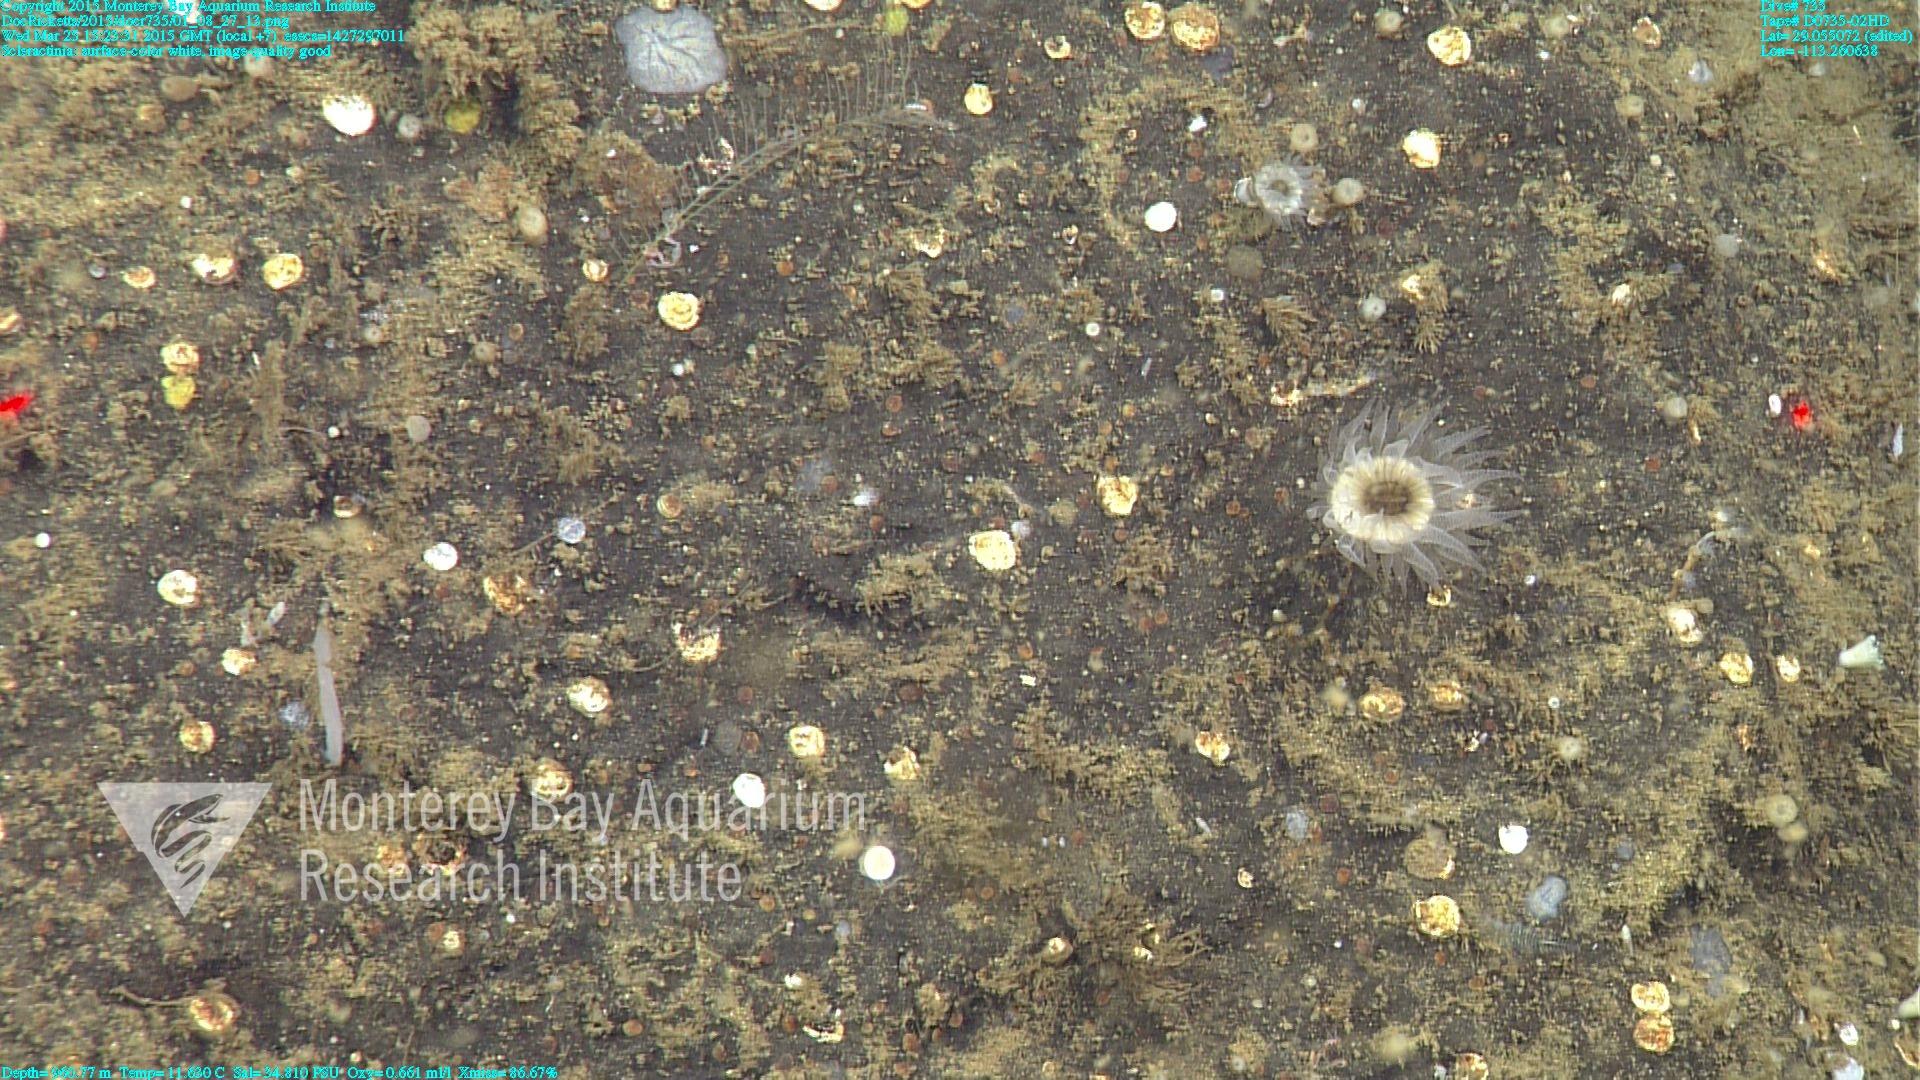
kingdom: Animalia
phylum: Cnidaria
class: Anthozoa
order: Scleractinia
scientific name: Scleractinia
